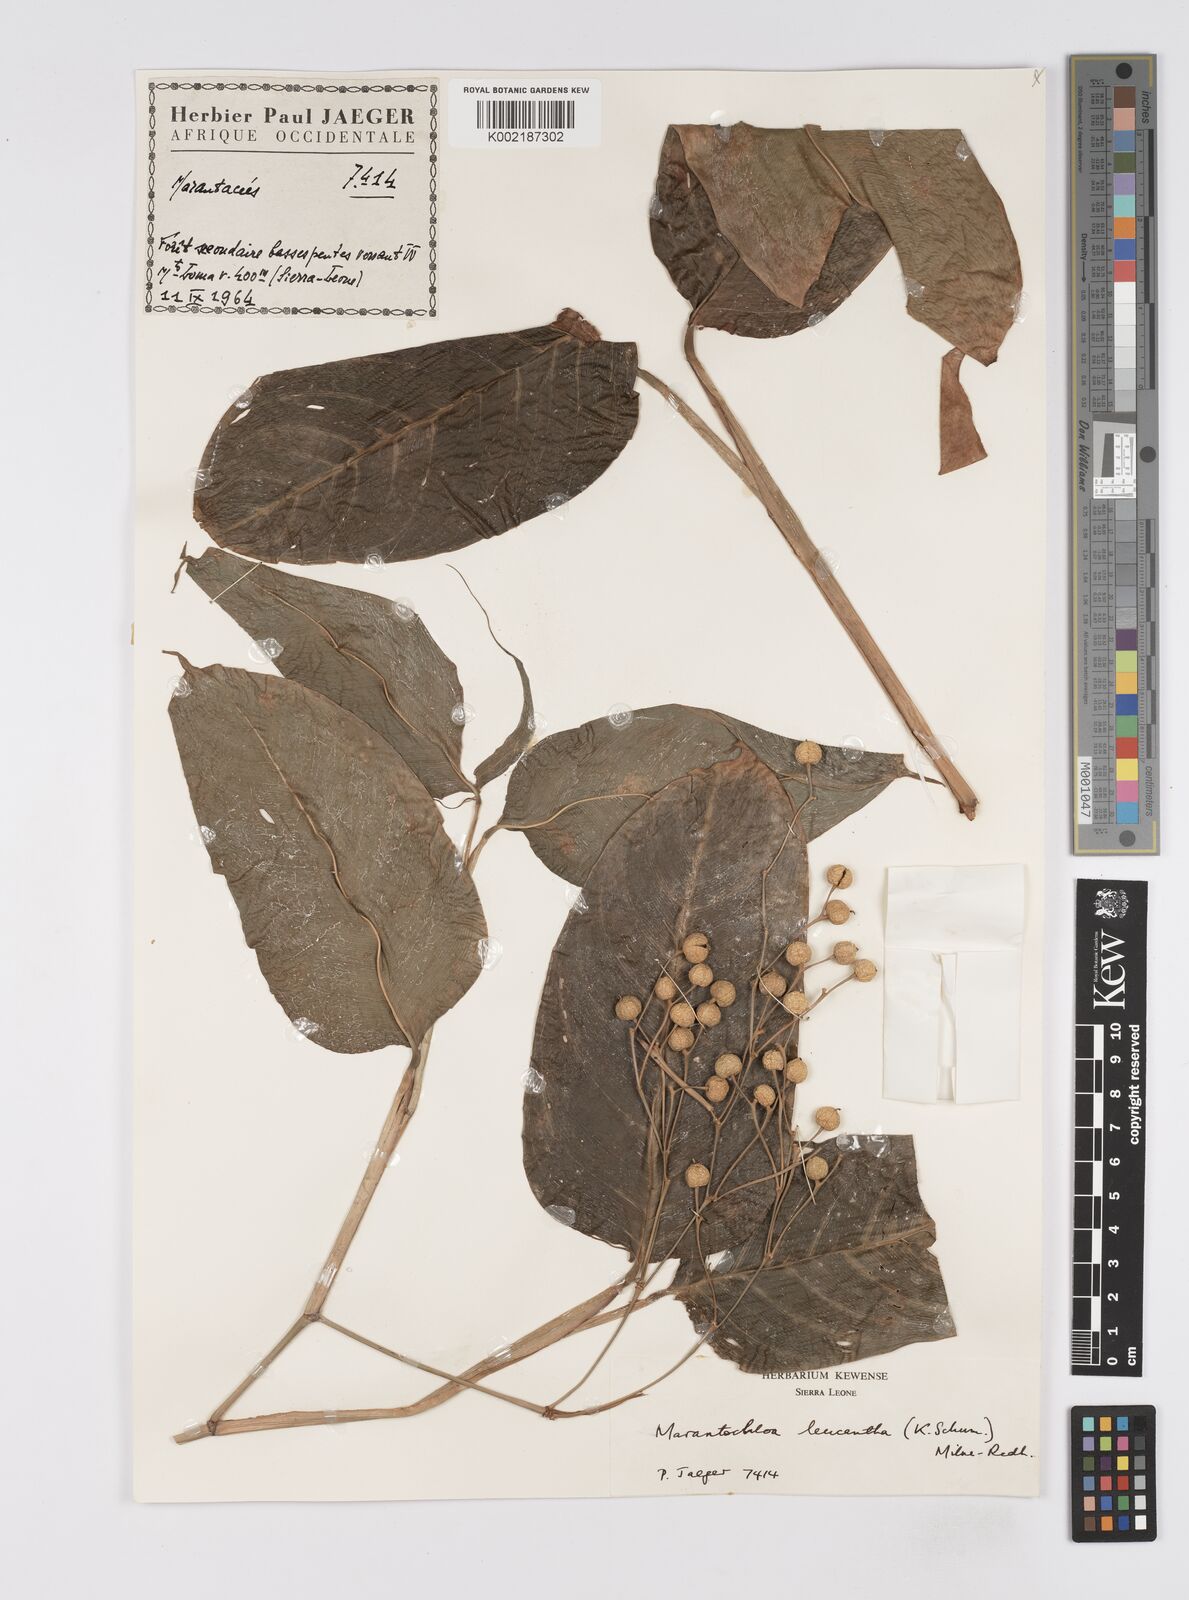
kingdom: Plantae
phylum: Tracheophyta
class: Liliopsida
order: Zingiberales
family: Marantaceae
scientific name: Marantaceae
